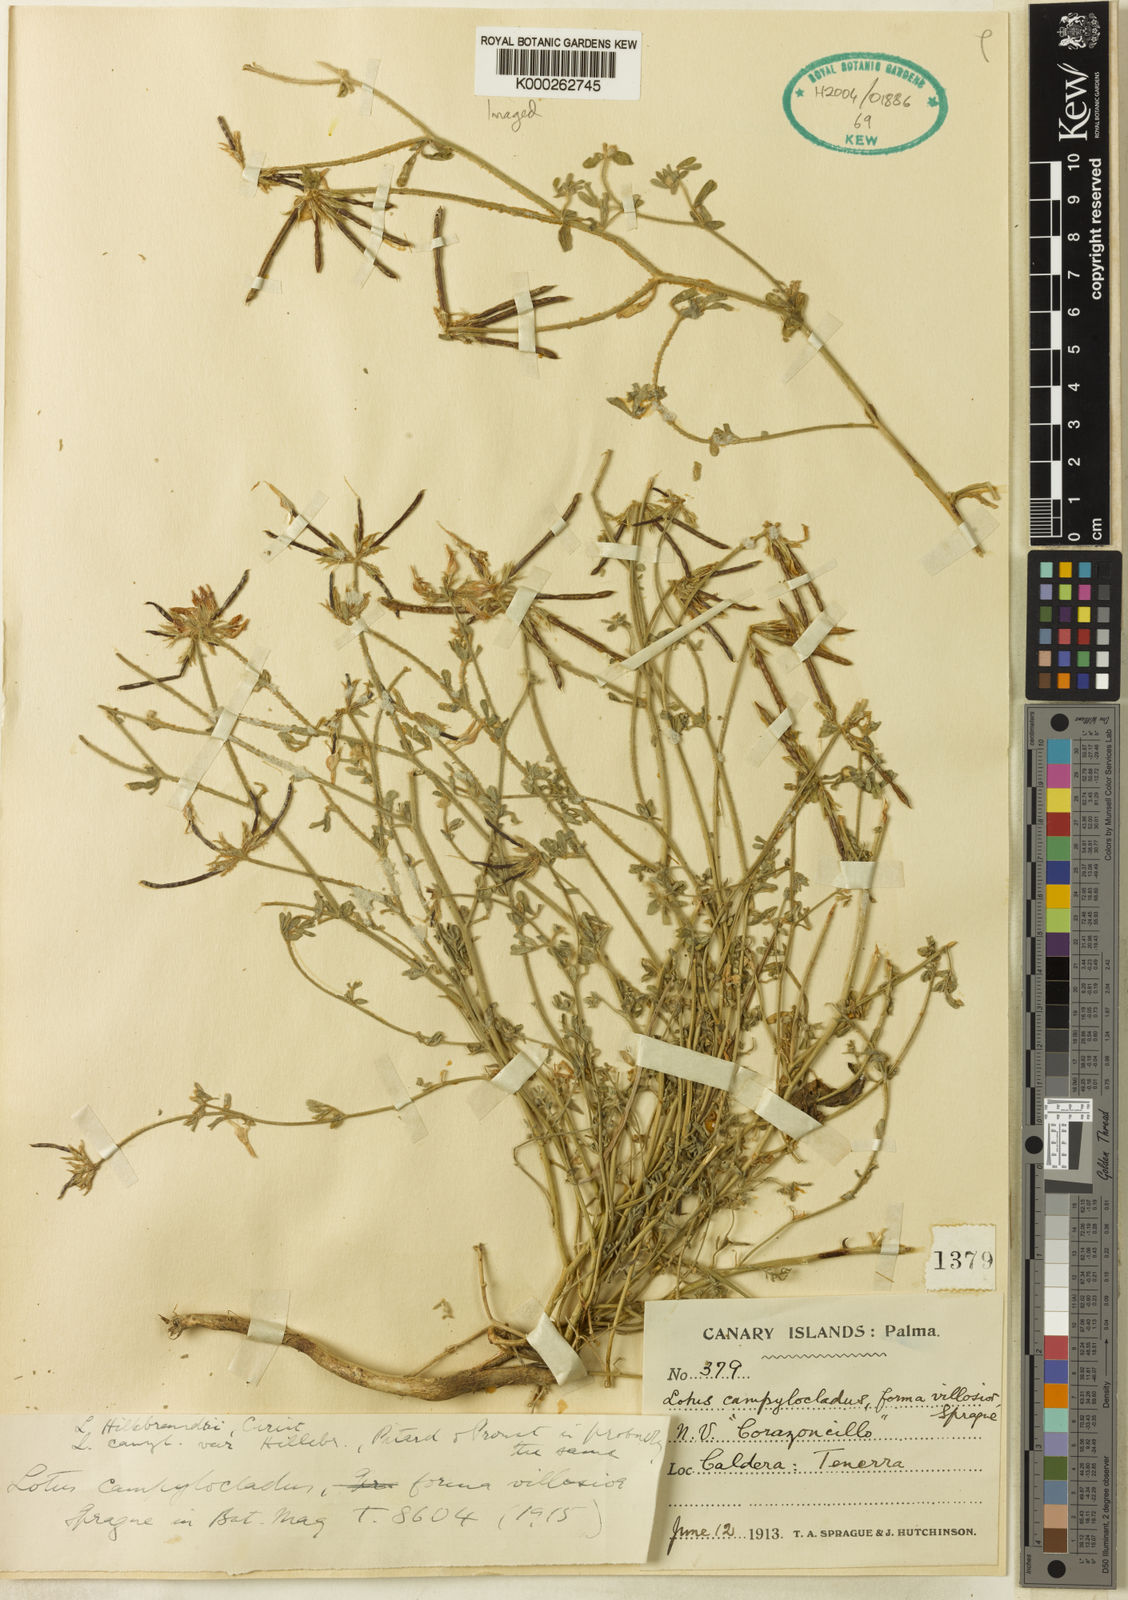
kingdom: Plantae
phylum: Tracheophyta
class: Magnoliopsida
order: Fabales
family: Fabaceae
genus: Lotus
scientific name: Lotus campylocladus
